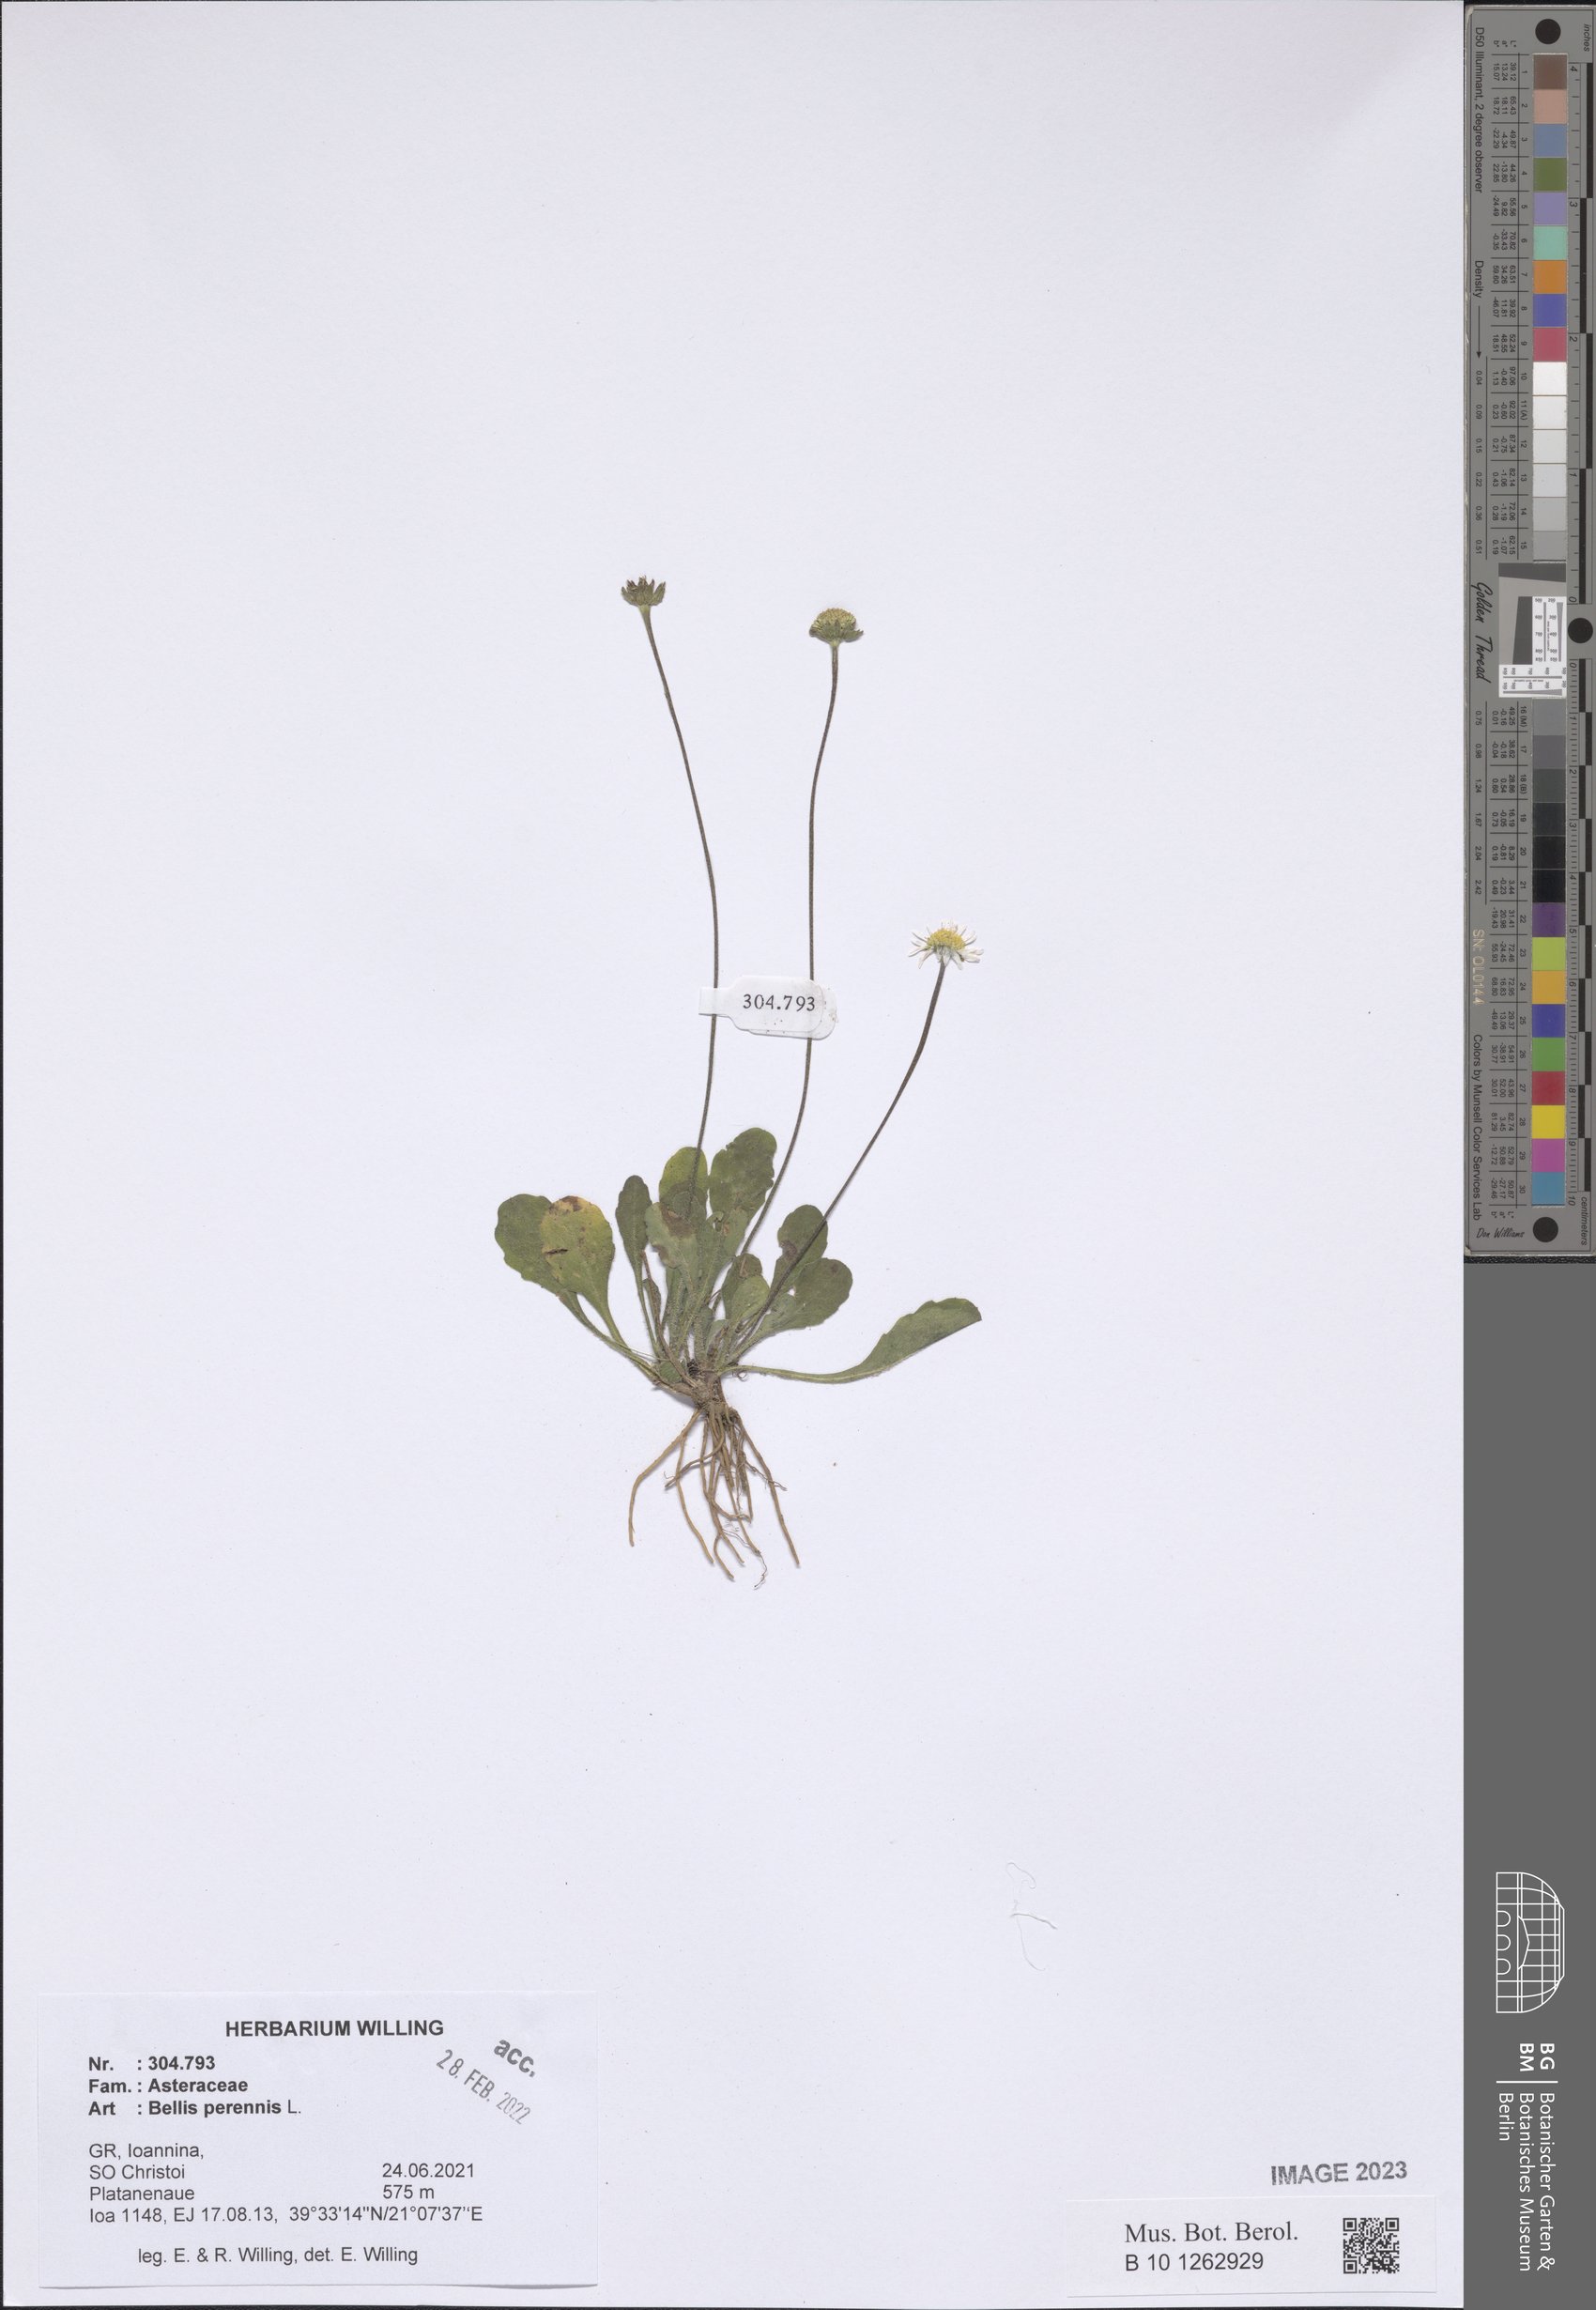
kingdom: Plantae
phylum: Tracheophyta
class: Magnoliopsida
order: Asterales
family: Asteraceae
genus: Bellis
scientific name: Bellis perennis
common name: Lawndaisy
